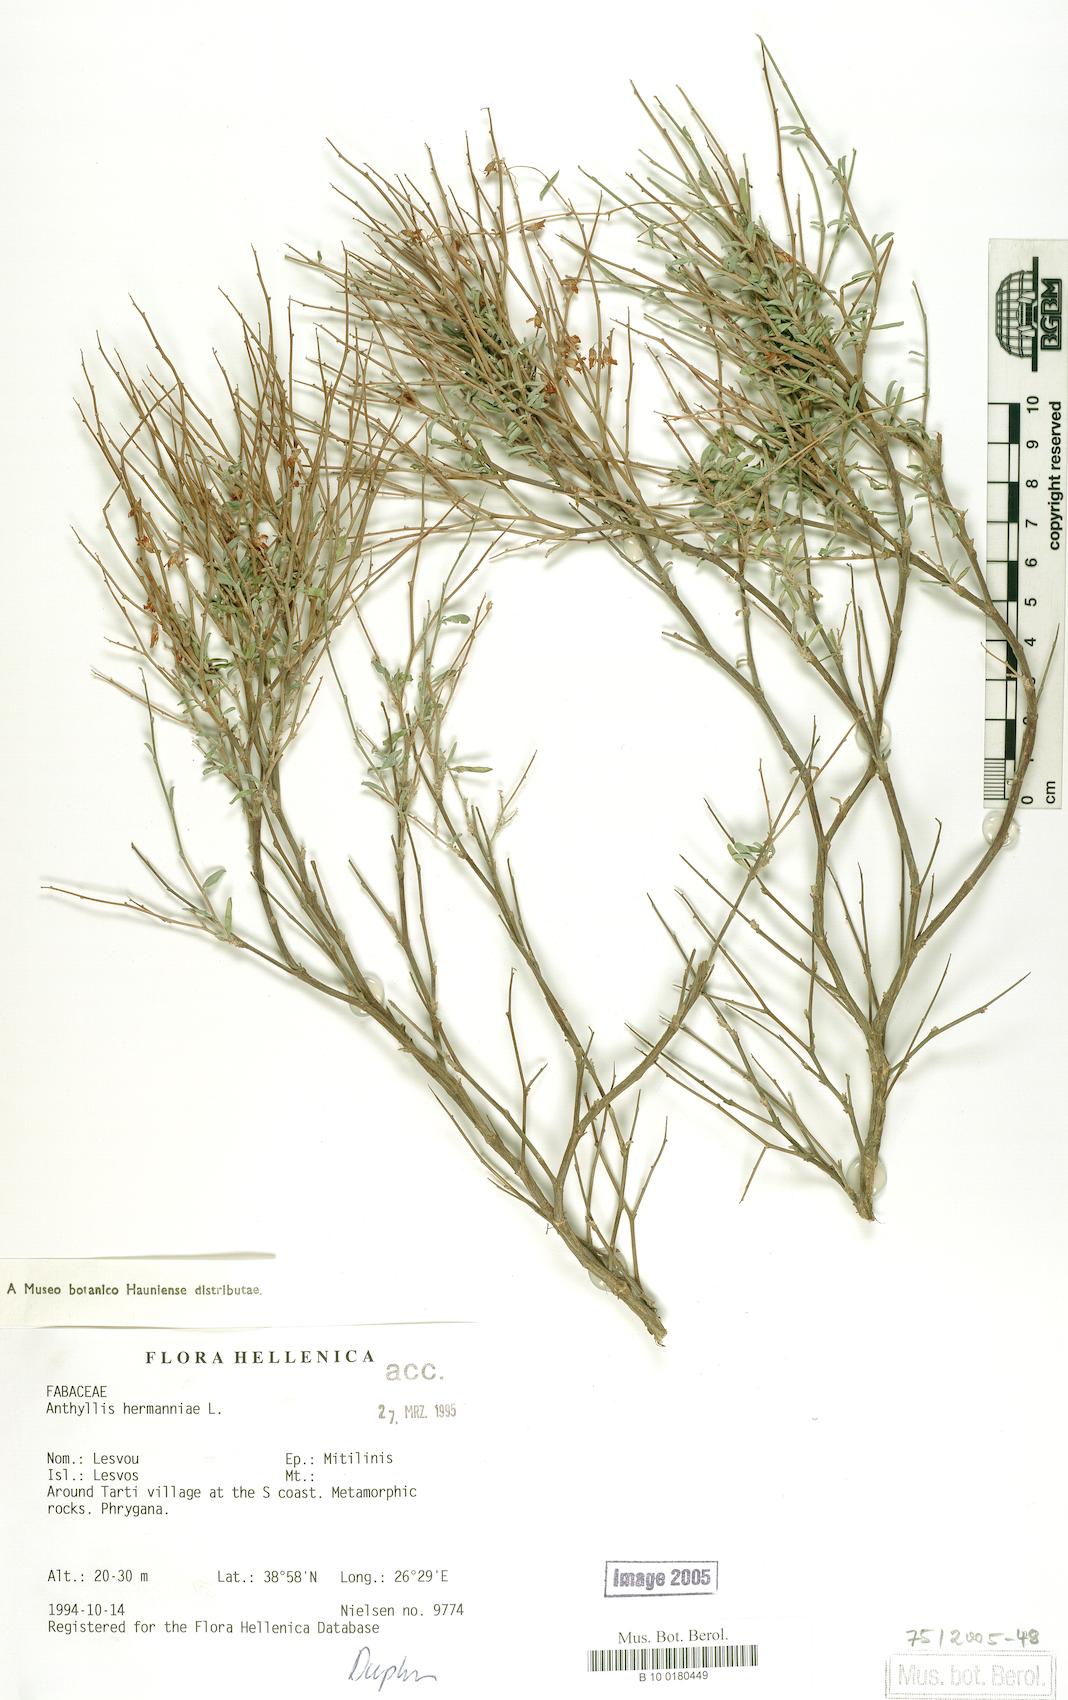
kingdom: Plantae
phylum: Tracheophyta
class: Magnoliopsida
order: Fabales
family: Fabaceae
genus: Anthyllis
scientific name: Anthyllis hermanniae
